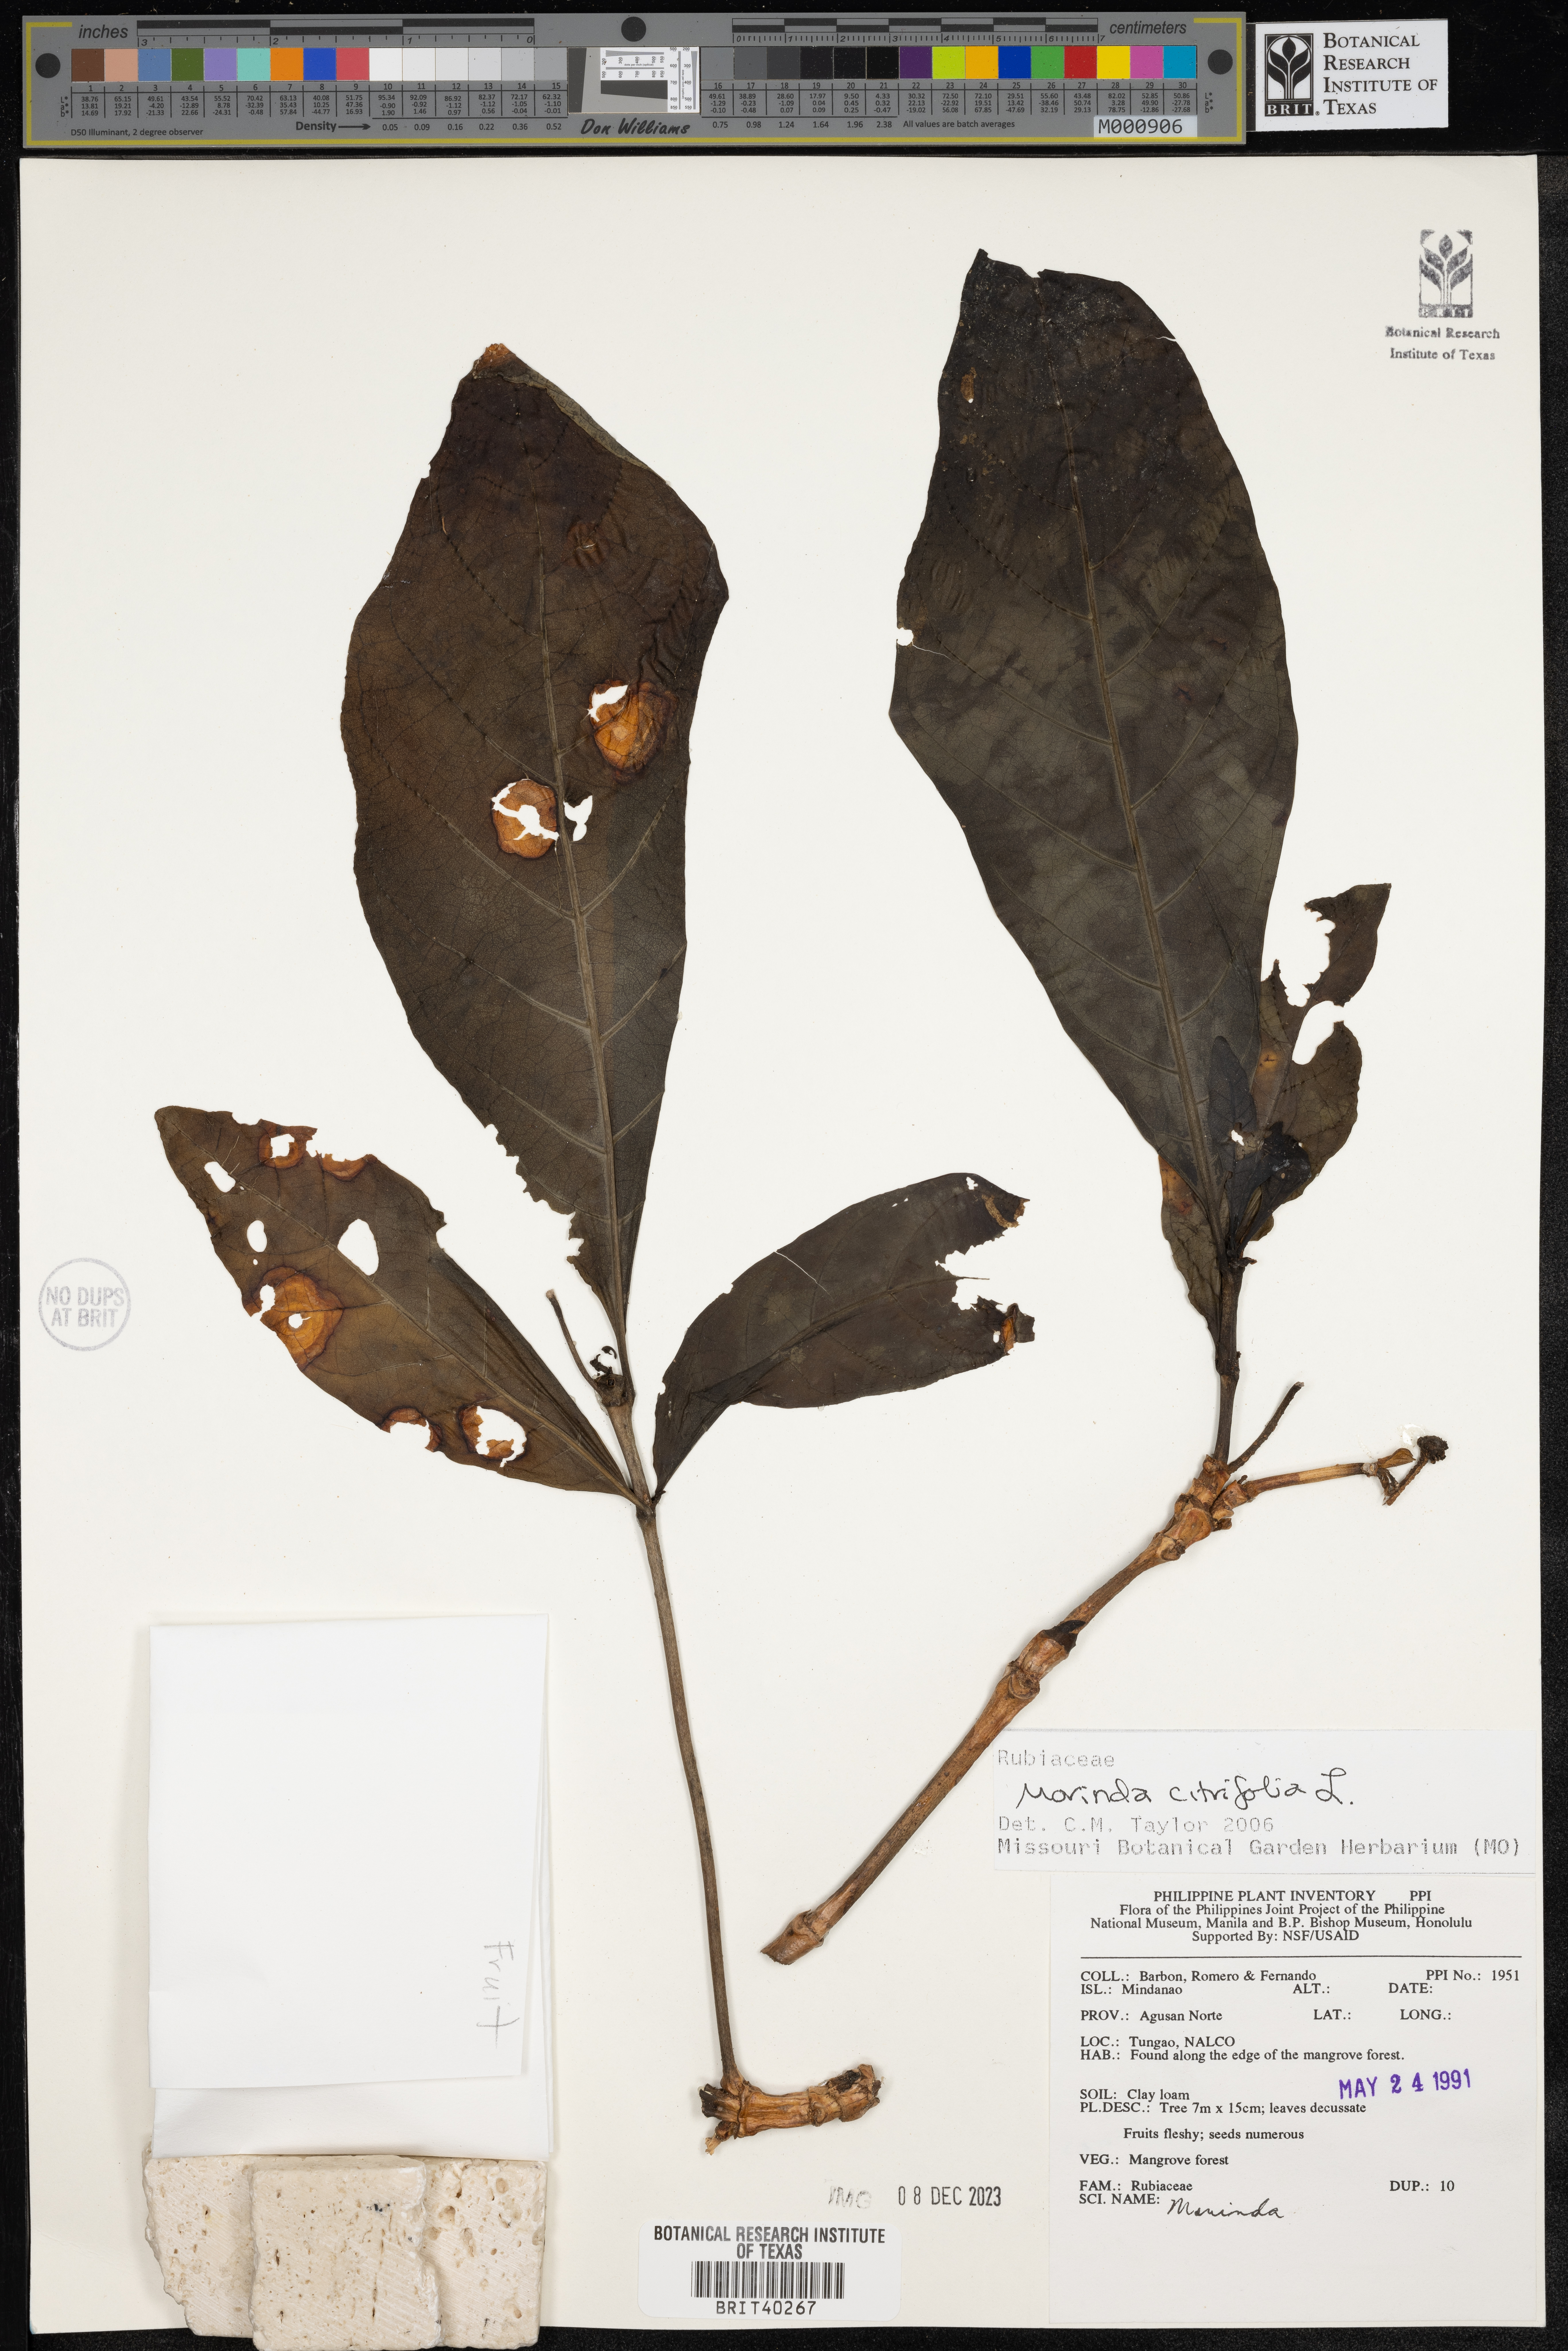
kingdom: Plantae
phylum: Tracheophyta
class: Magnoliopsida
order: Gentianales
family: Rubiaceae
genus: Morinda
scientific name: Morinda citrifolia
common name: Indian-mulberry
